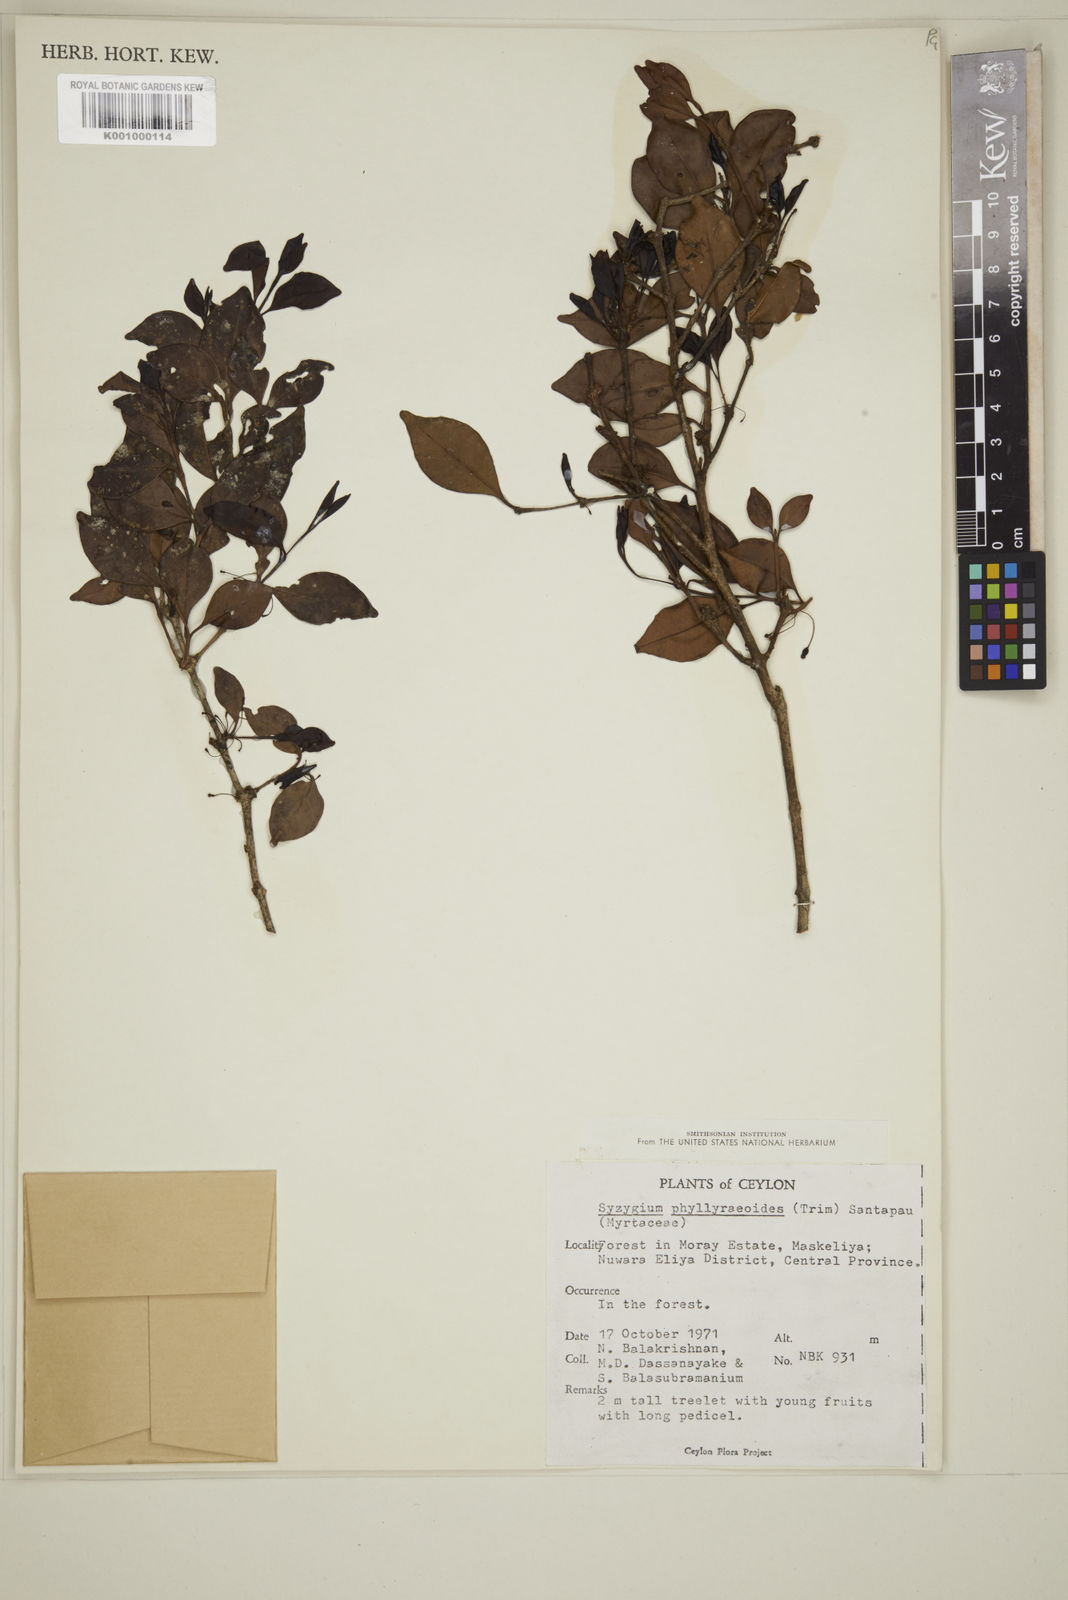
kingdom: Plantae
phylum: Tracheophyta
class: Magnoliopsida
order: Myrtales
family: Myrtaceae
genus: Eugenia
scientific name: Eugenia
